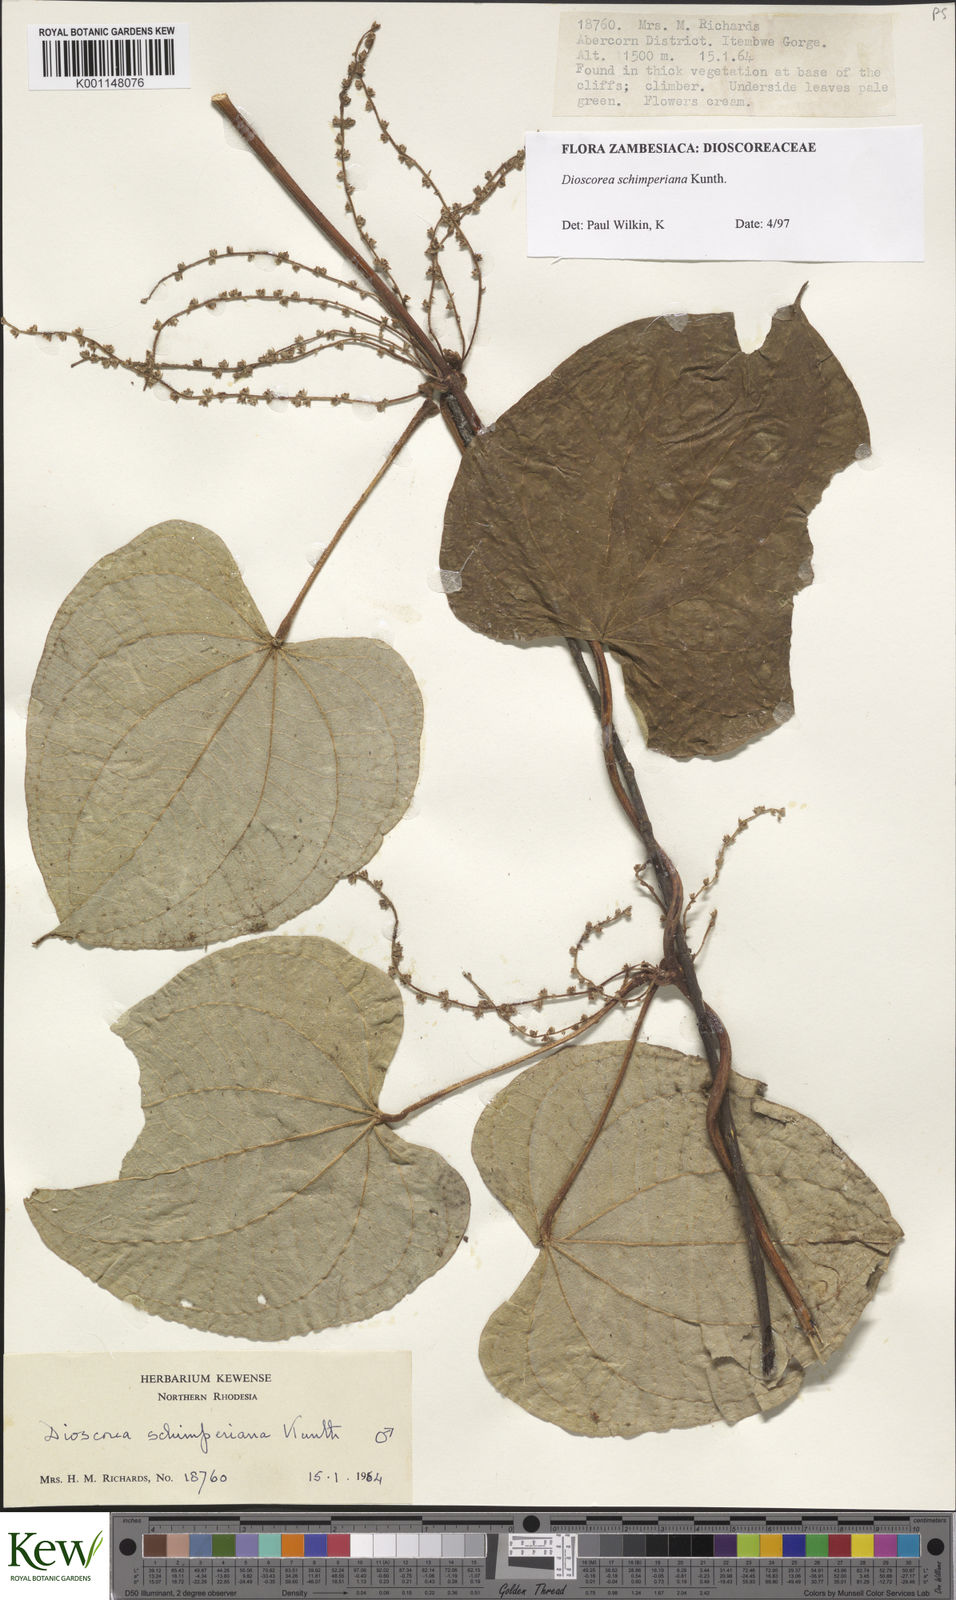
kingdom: Plantae
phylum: Tracheophyta
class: Liliopsida
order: Dioscoreales
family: Dioscoreaceae
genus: Dioscorea
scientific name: Dioscorea schimperiana
